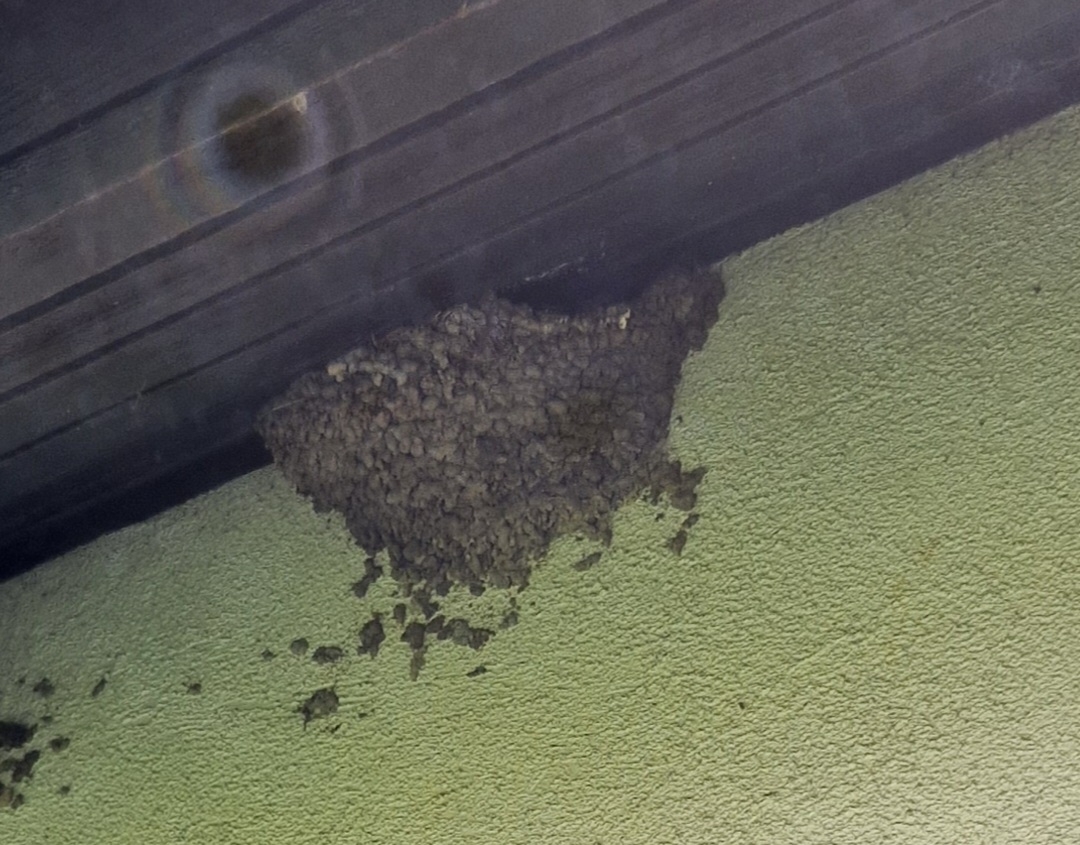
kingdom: Animalia
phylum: Chordata
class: Aves
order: Passeriformes
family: Hirundinidae
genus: Delichon
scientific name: Delichon urbicum
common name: Bysvale
